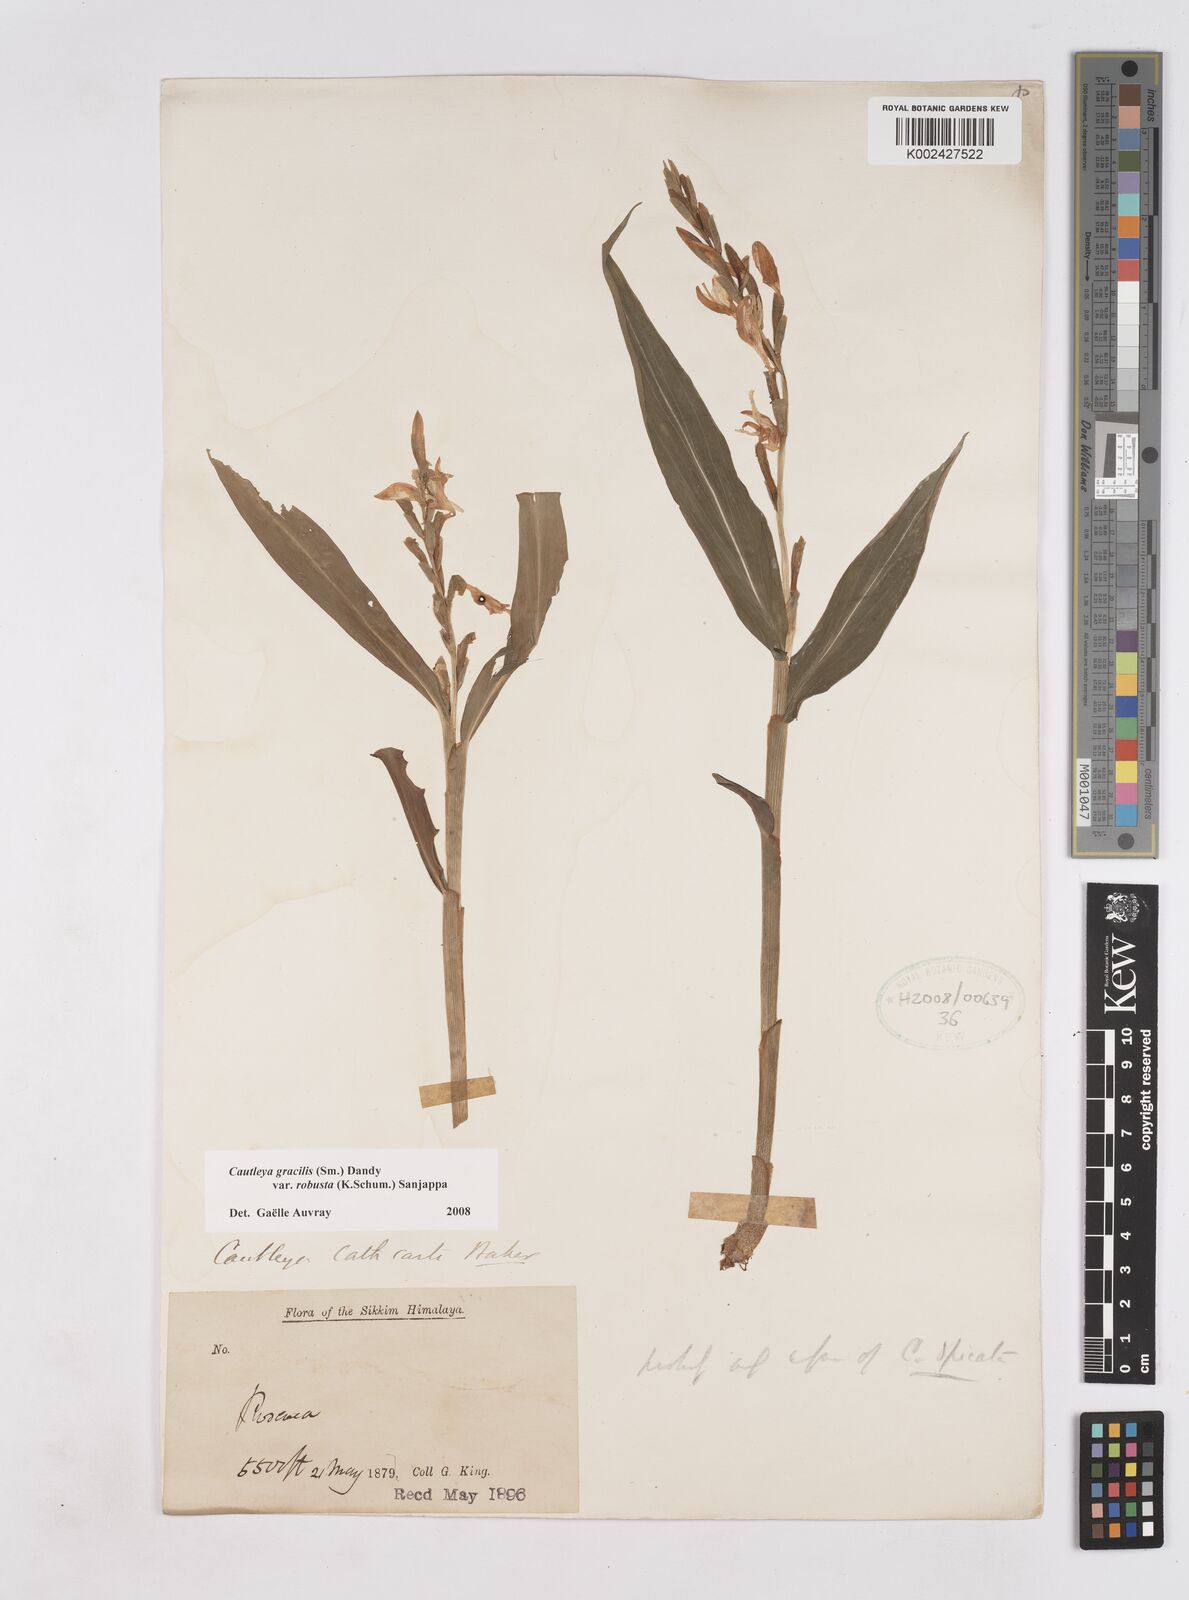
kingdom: Plantae
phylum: Tracheophyta
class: Liliopsida
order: Zingiberales
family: Zingiberaceae
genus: Cautleya
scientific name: Cautleya gracilis
